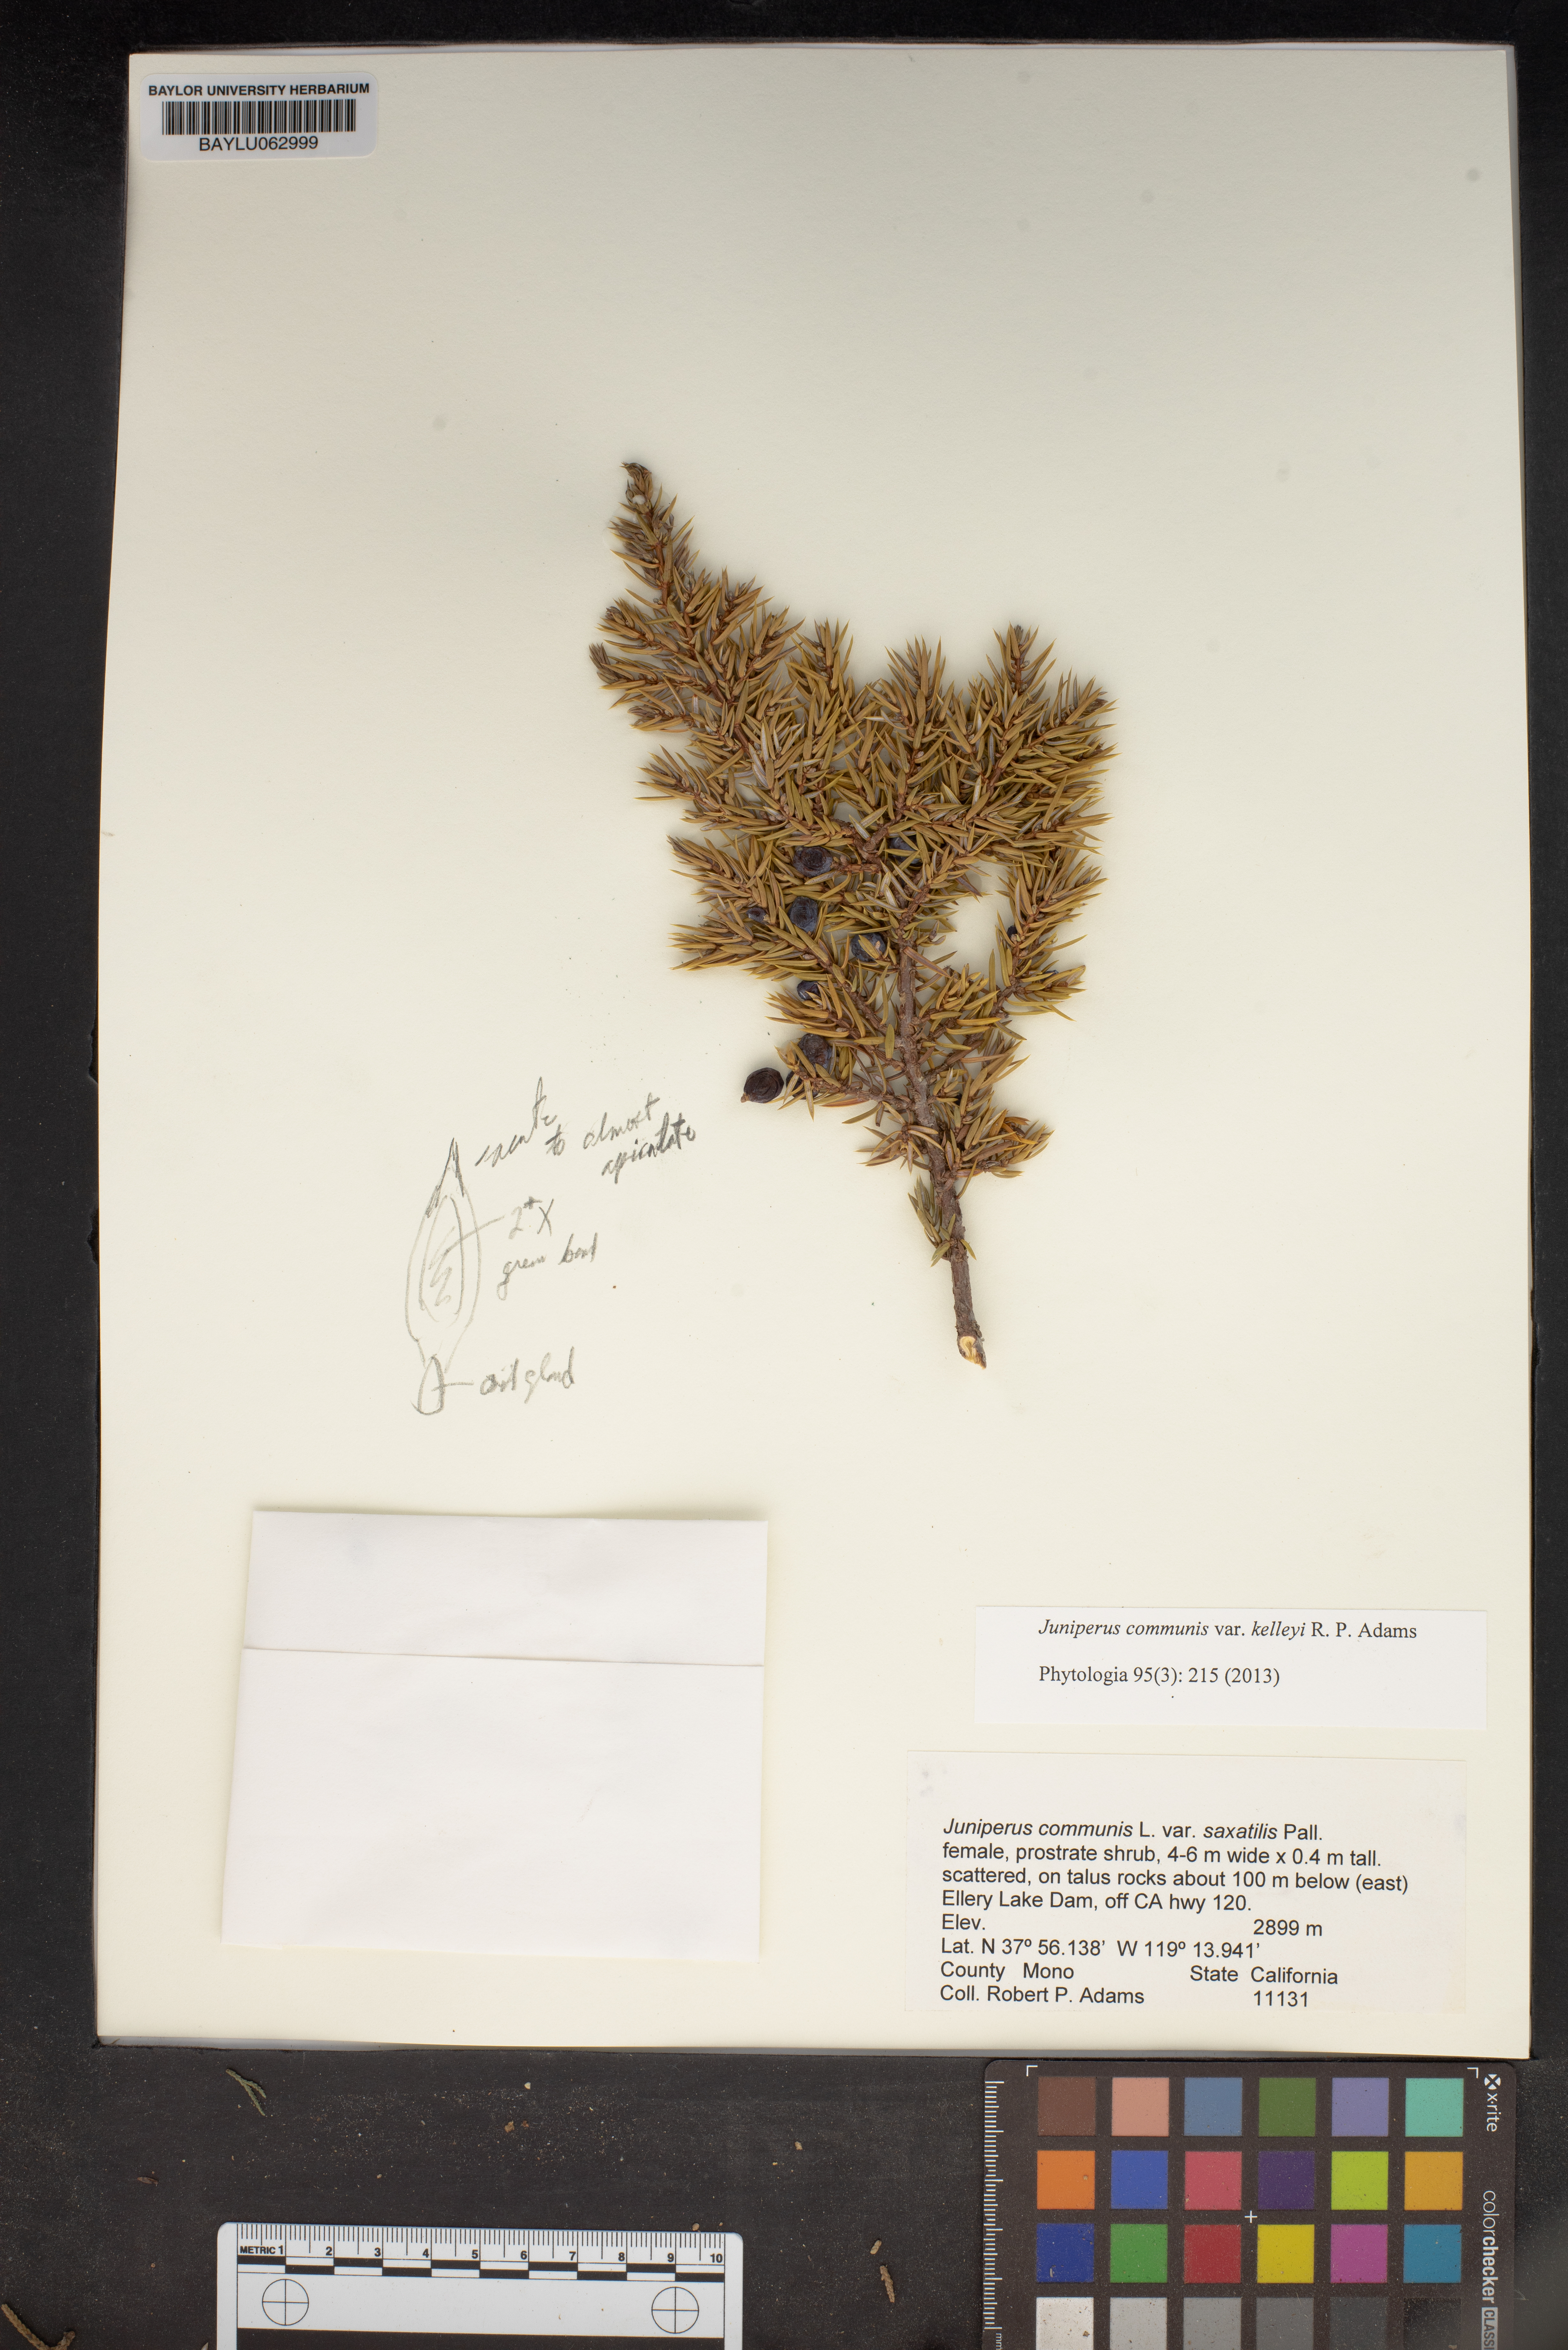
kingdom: Plantae
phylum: Tracheophyta
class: Pinopsida
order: Pinales
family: Cupressaceae
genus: Juniperus
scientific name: Juniperus communis
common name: Common juniper
